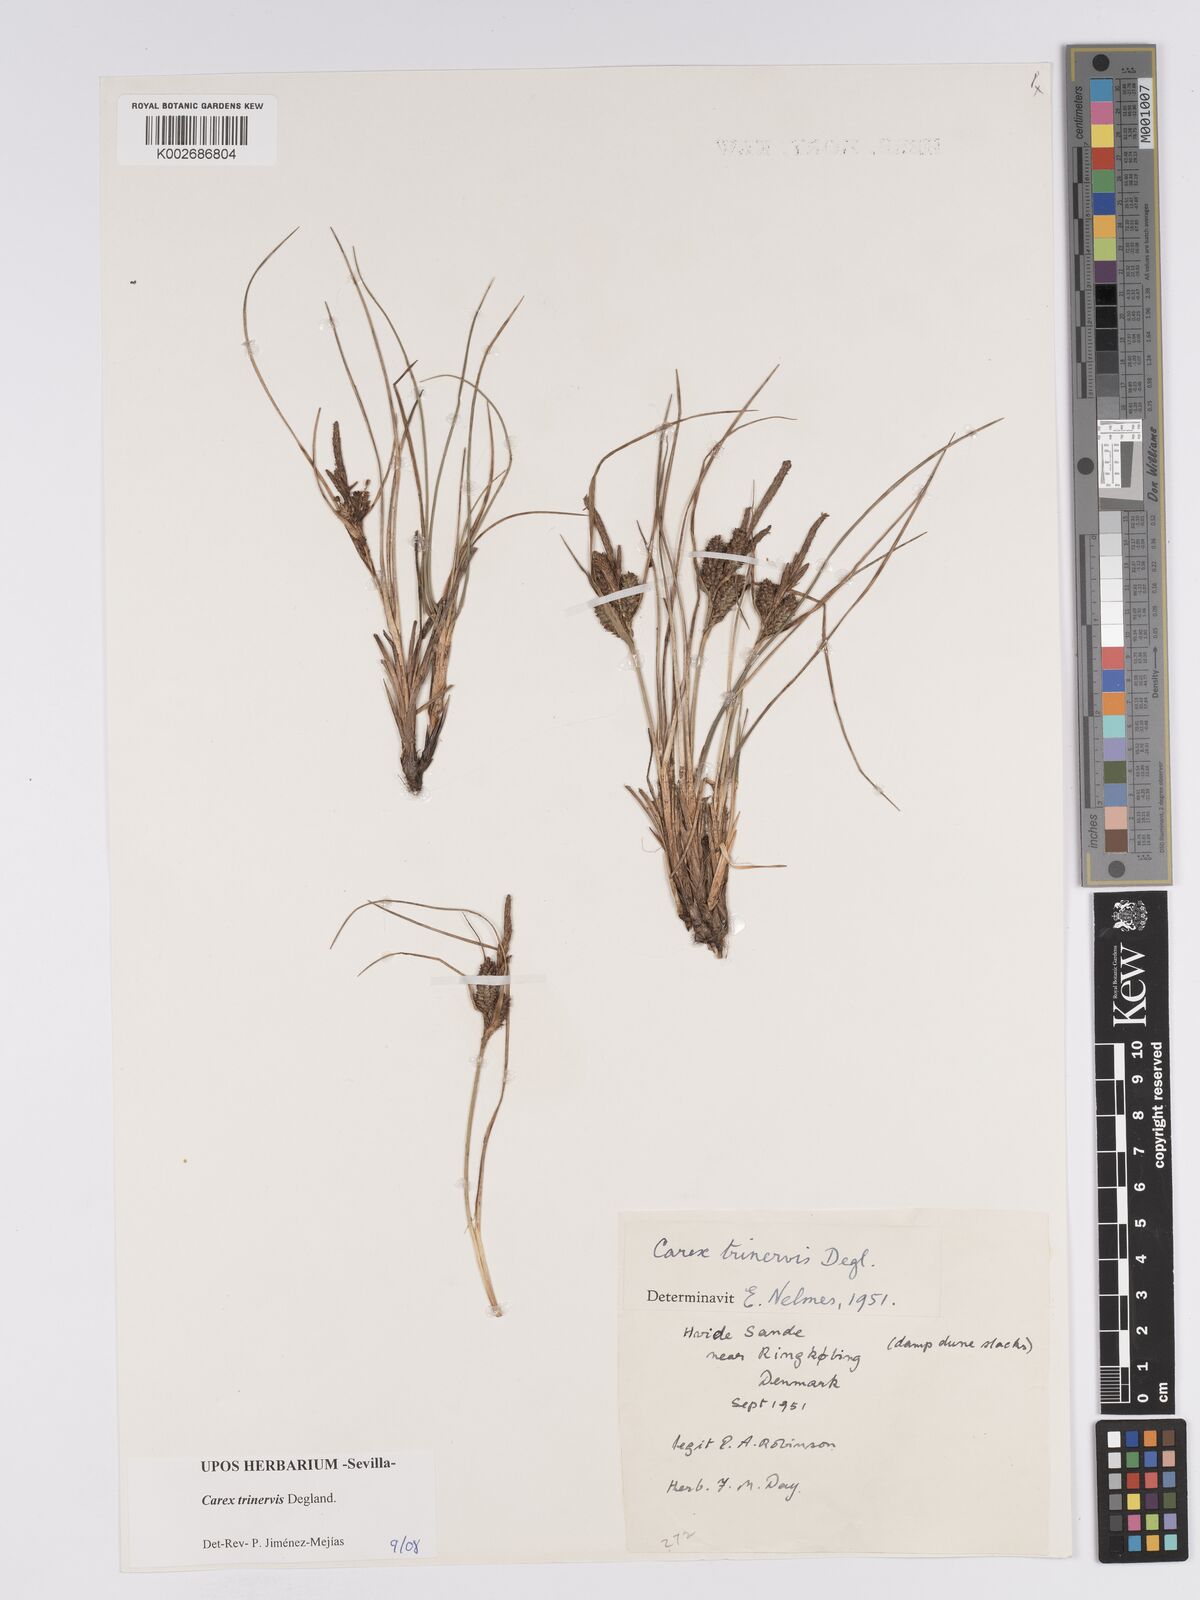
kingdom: Plantae
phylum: Tracheophyta
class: Liliopsida
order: Poales
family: Cyperaceae
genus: Carex
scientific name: Carex trinervis
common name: Three-nerved sedge
